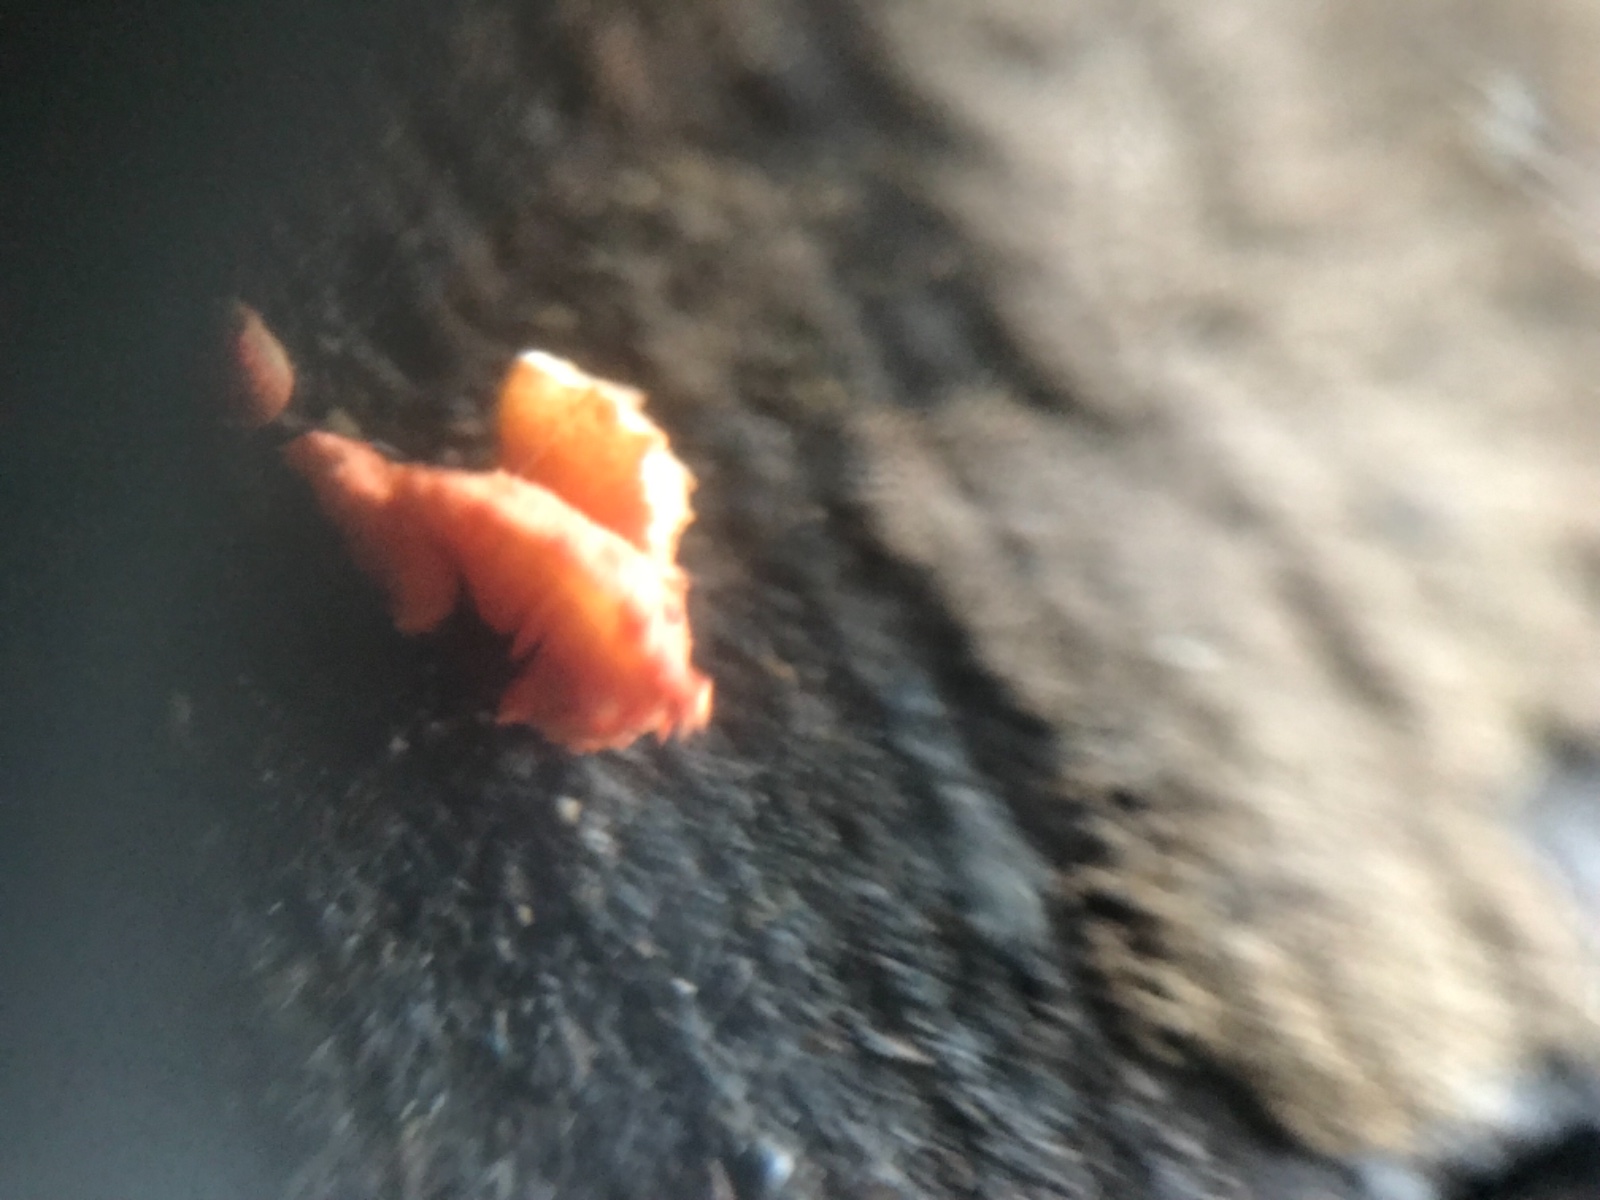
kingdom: Fungi
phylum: Basidiomycota
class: Agaricomycetes
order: Agaricales
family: Crepidotaceae
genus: Crepidotus
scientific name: Crepidotus cinnabarinus
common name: cinnober-muslingesvamp
